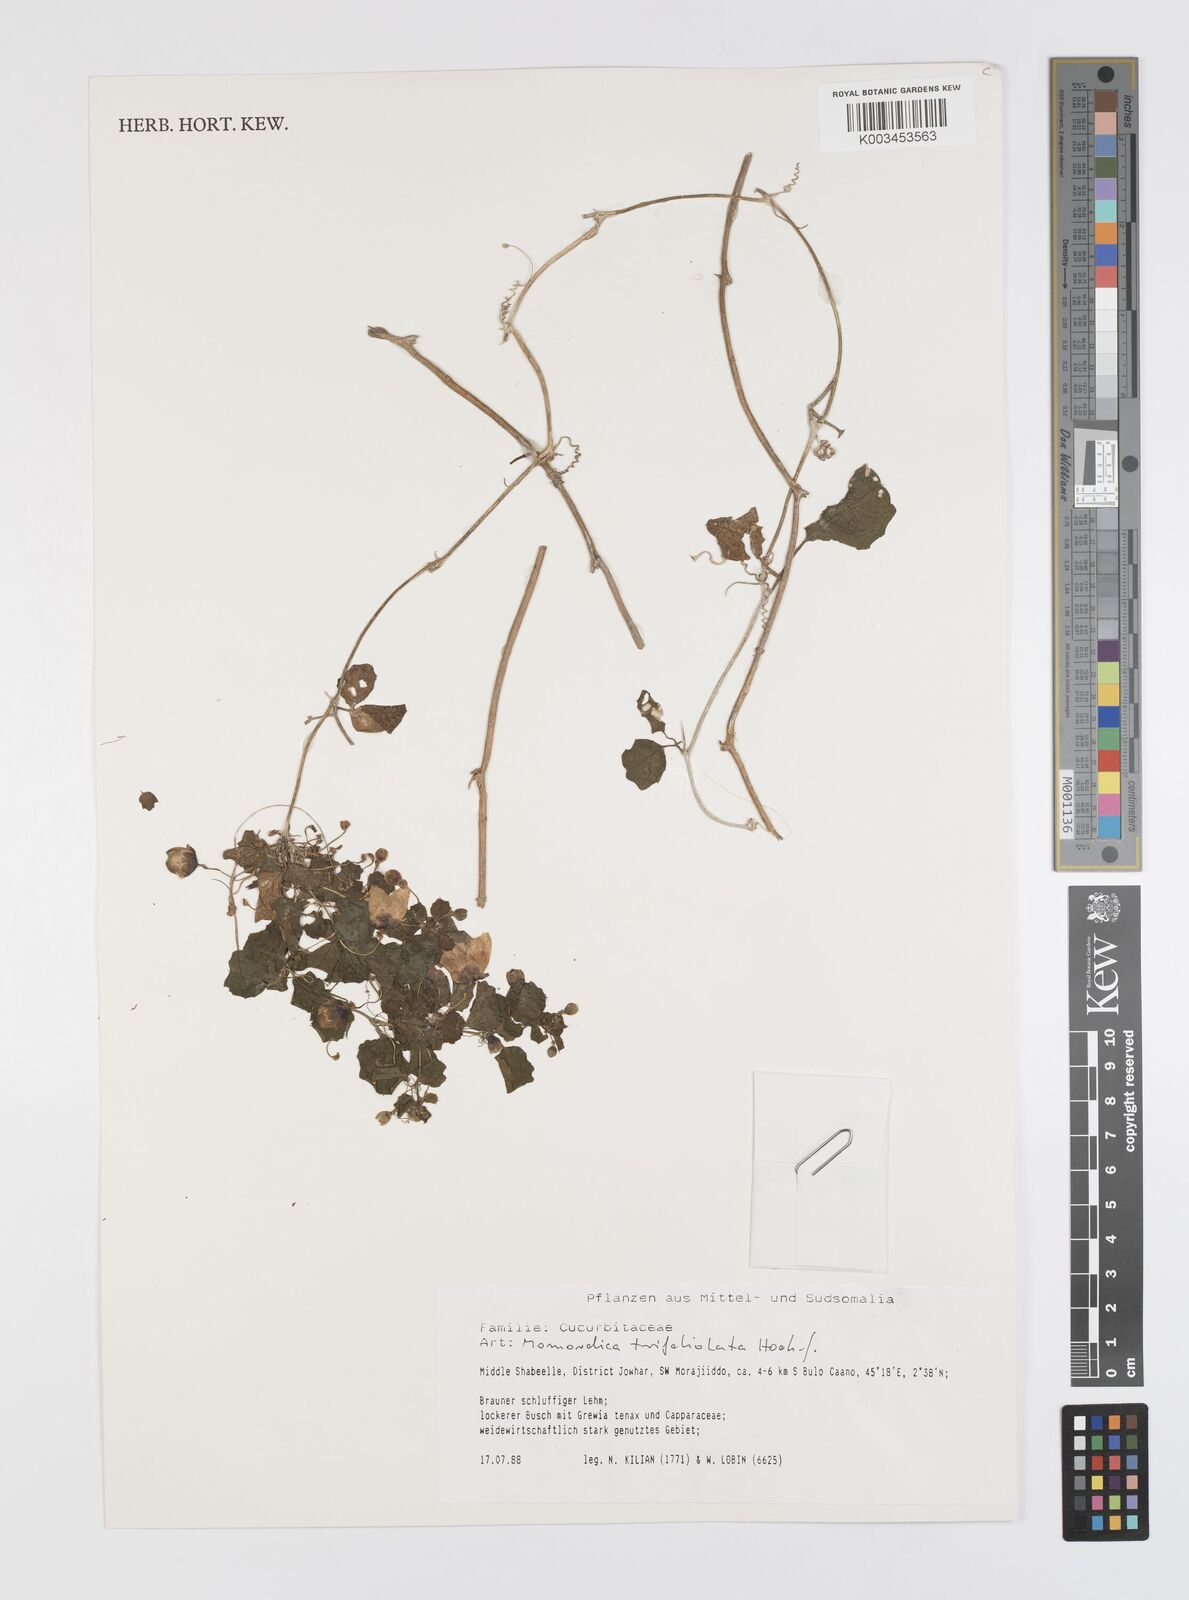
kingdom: Plantae
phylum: Tracheophyta
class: Magnoliopsida
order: Cucurbitales
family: Cucurbitaceae
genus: Momordica
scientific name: Momordica trifoliolata
